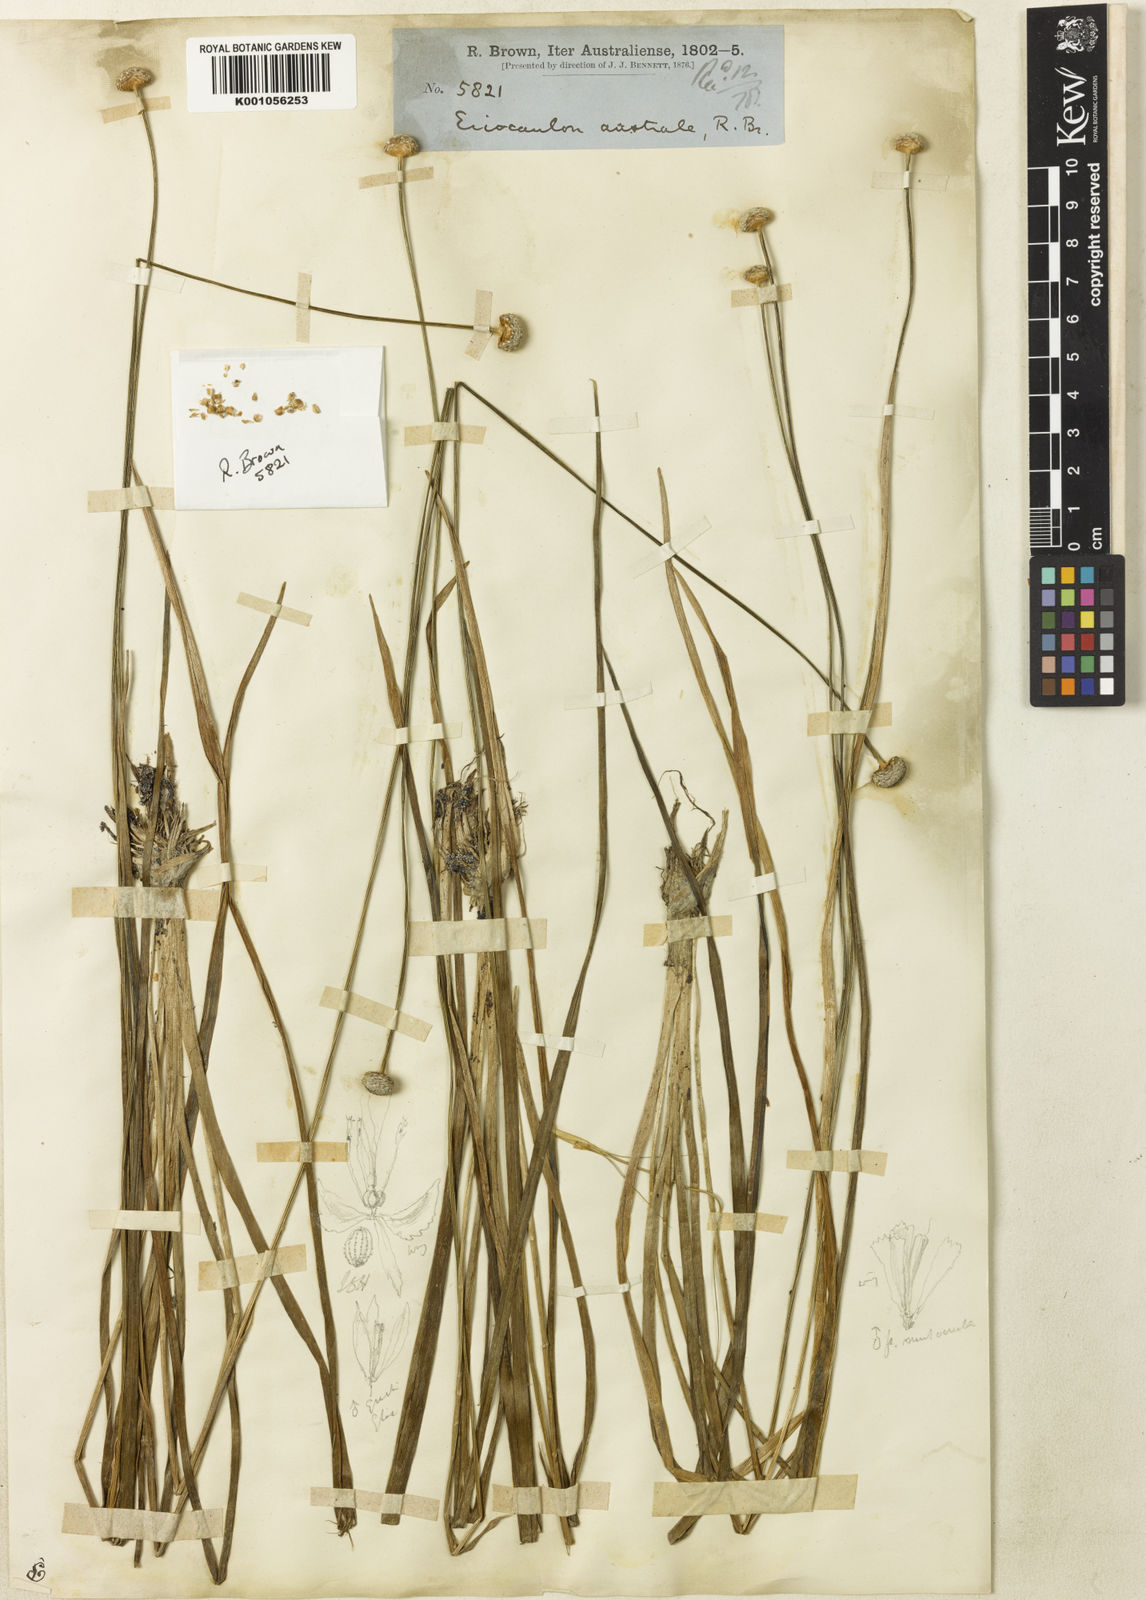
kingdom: Plantae
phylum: Tracheophyta
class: Liliopsida
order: Poales
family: Eriocaulaceae
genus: Eriocaulon
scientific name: Eriocaulon australe
